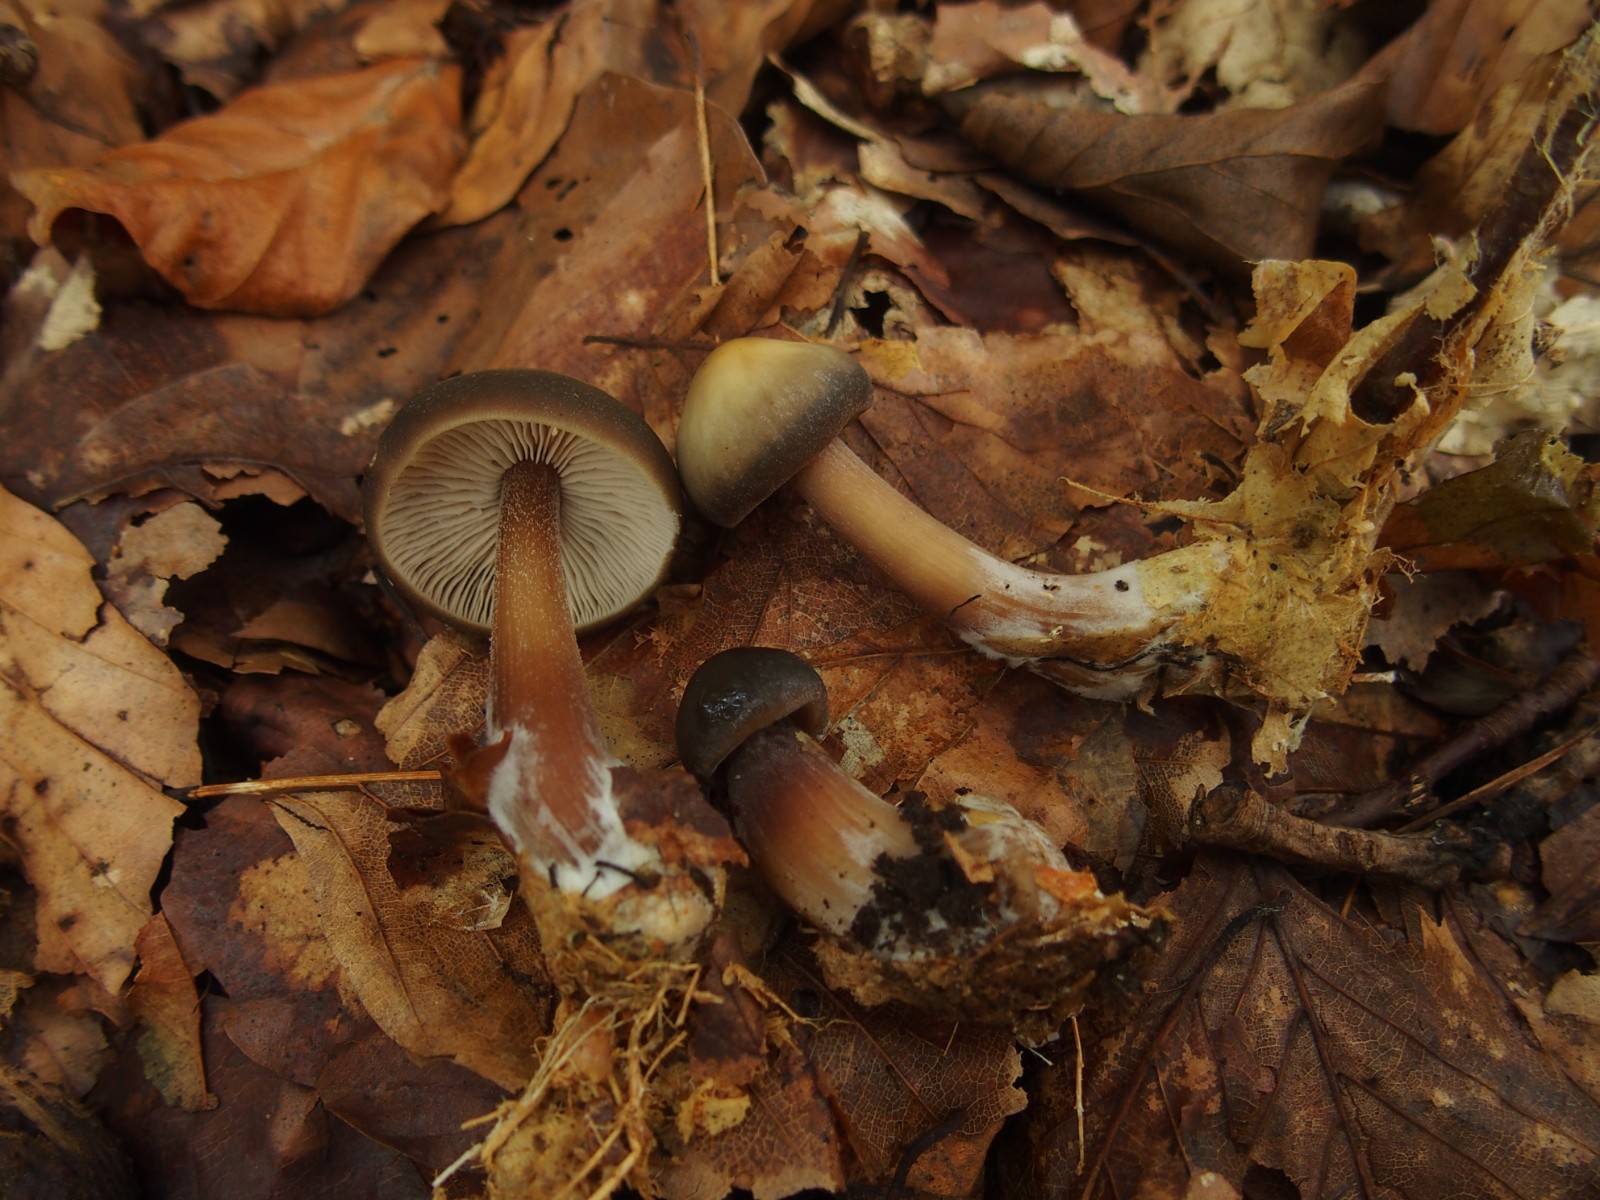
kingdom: Fungi
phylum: Basidiomycota
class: Agaricomycetes
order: Agaricales
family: Omphalotaceae
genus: Rhodocollybia
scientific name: Rhodocollybia asema
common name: horngrå fladhat
